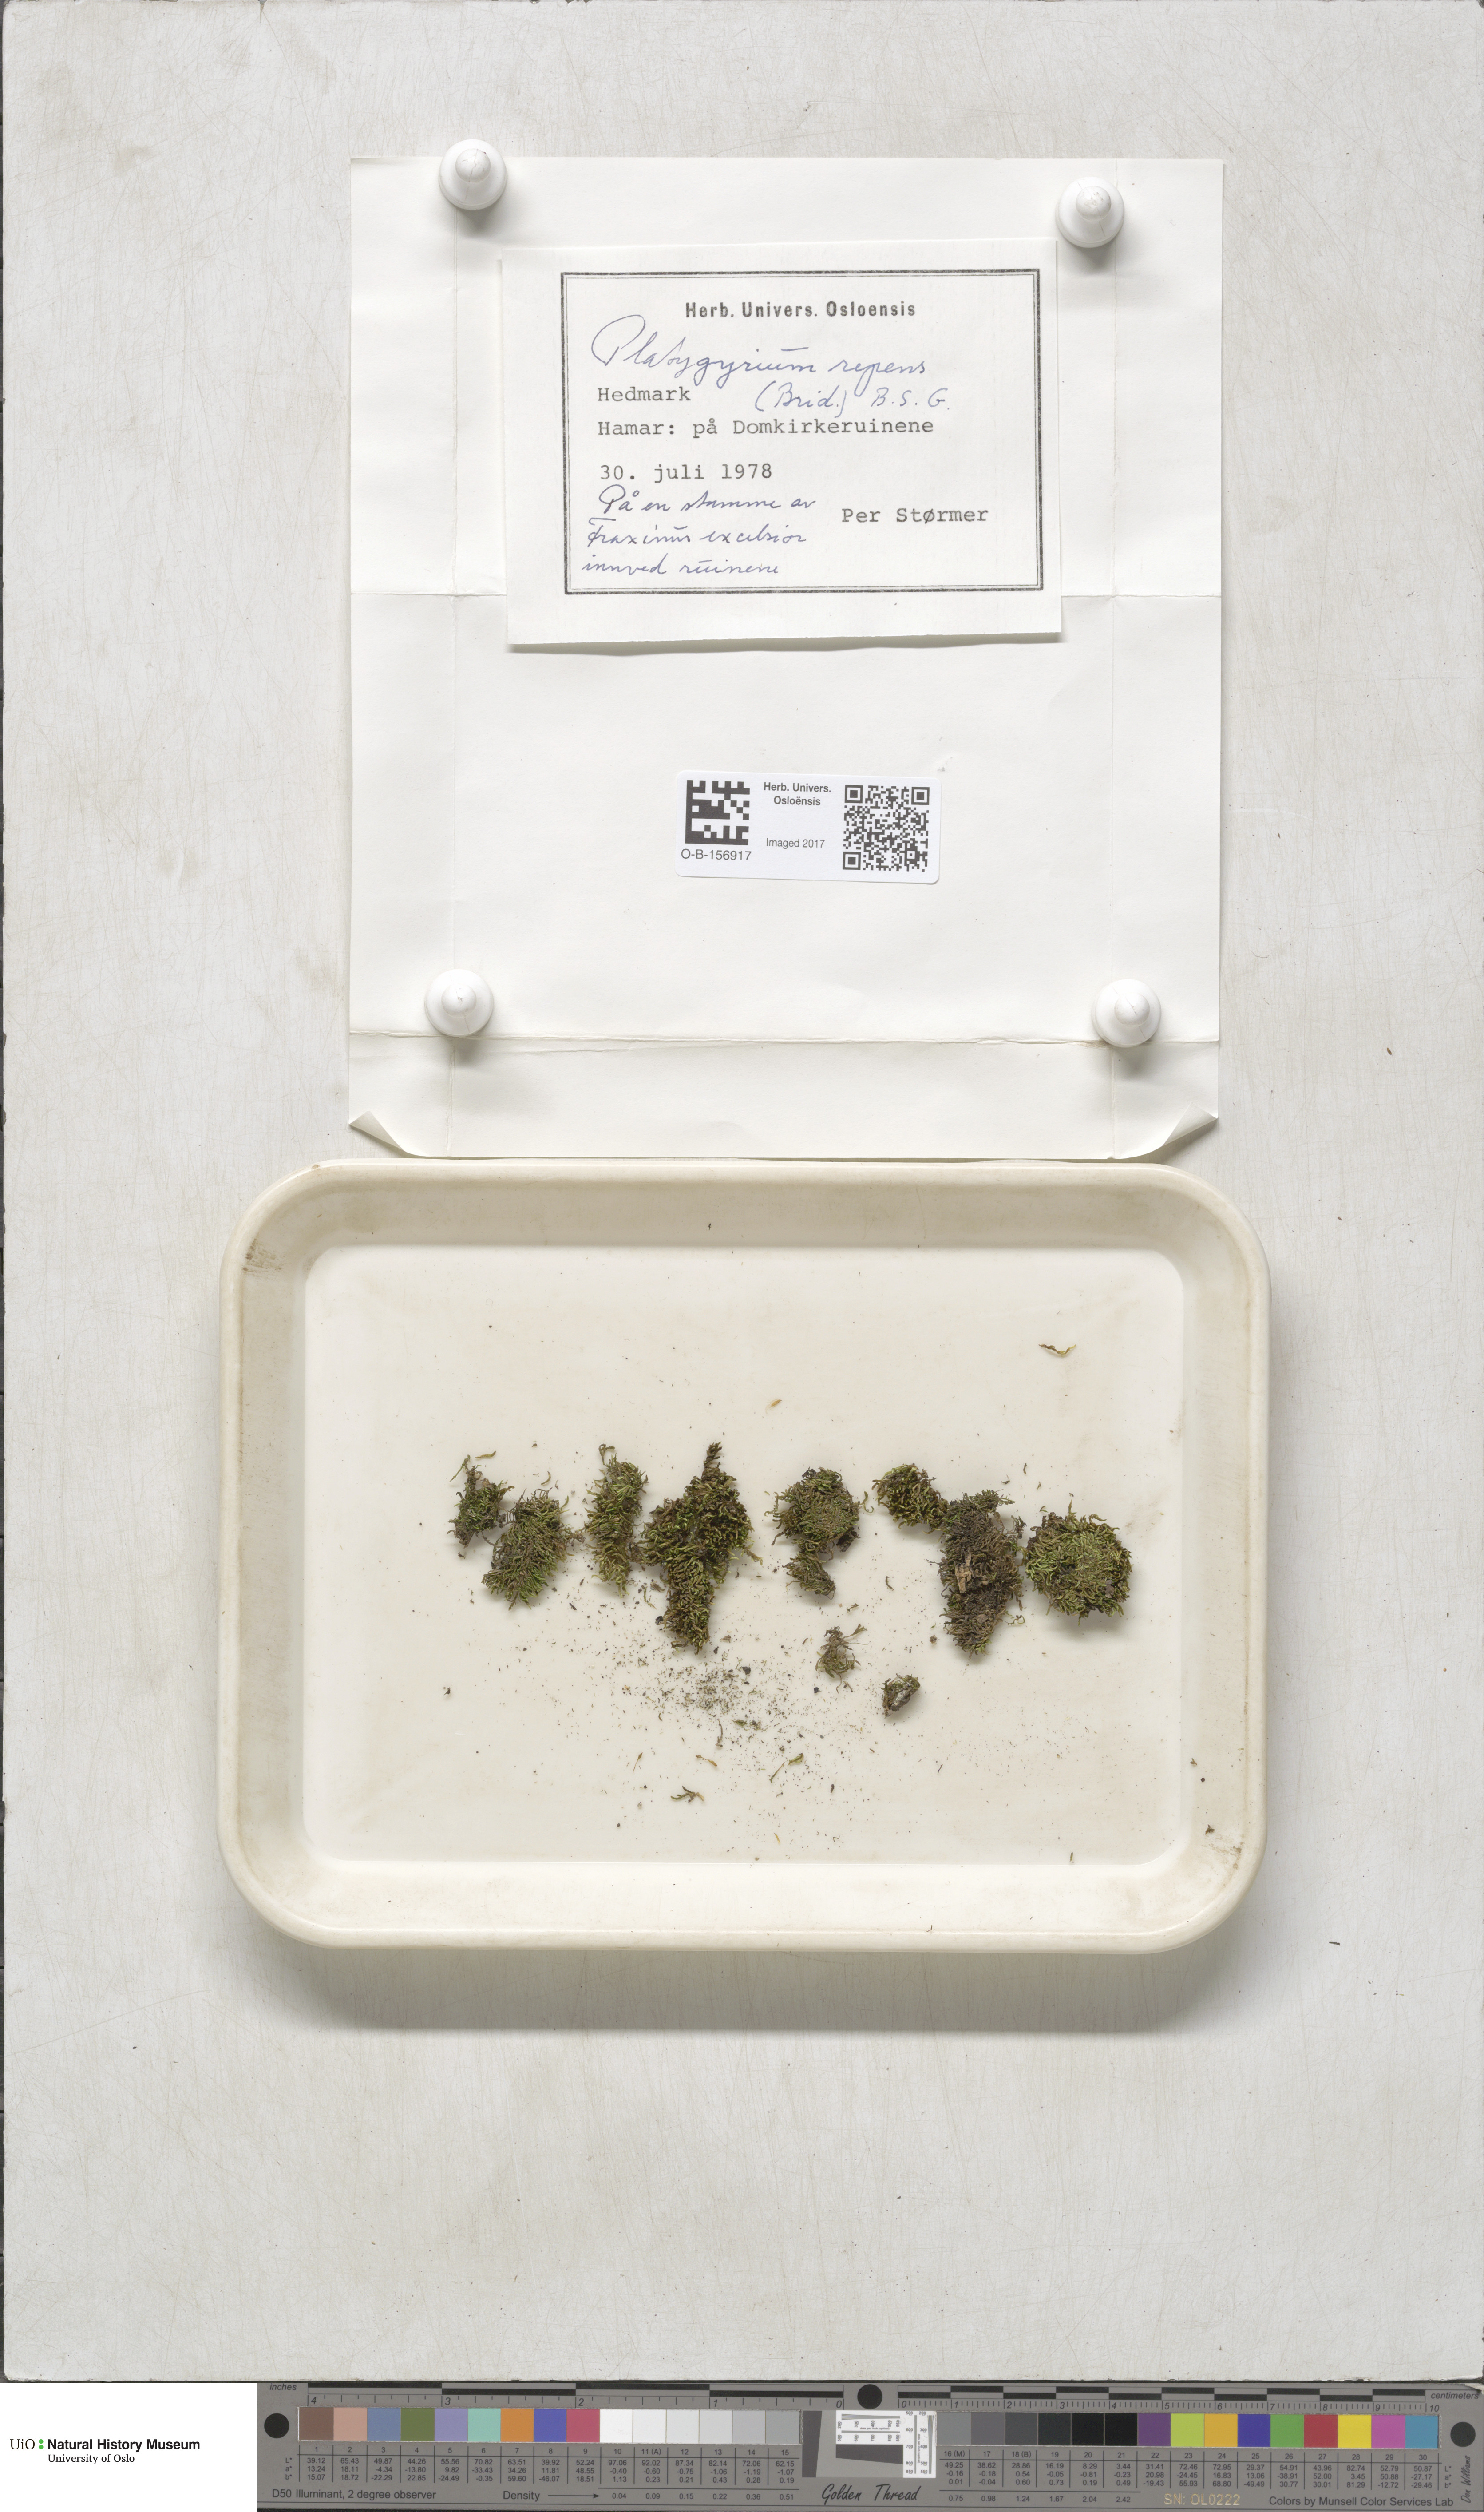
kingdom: Plantae
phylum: Bryophyta
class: Bryopsida
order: Hypnales
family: Pylaisiadelphaceae
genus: Platygyrium
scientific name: Platygyrium repens
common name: Flat-brocade moss
